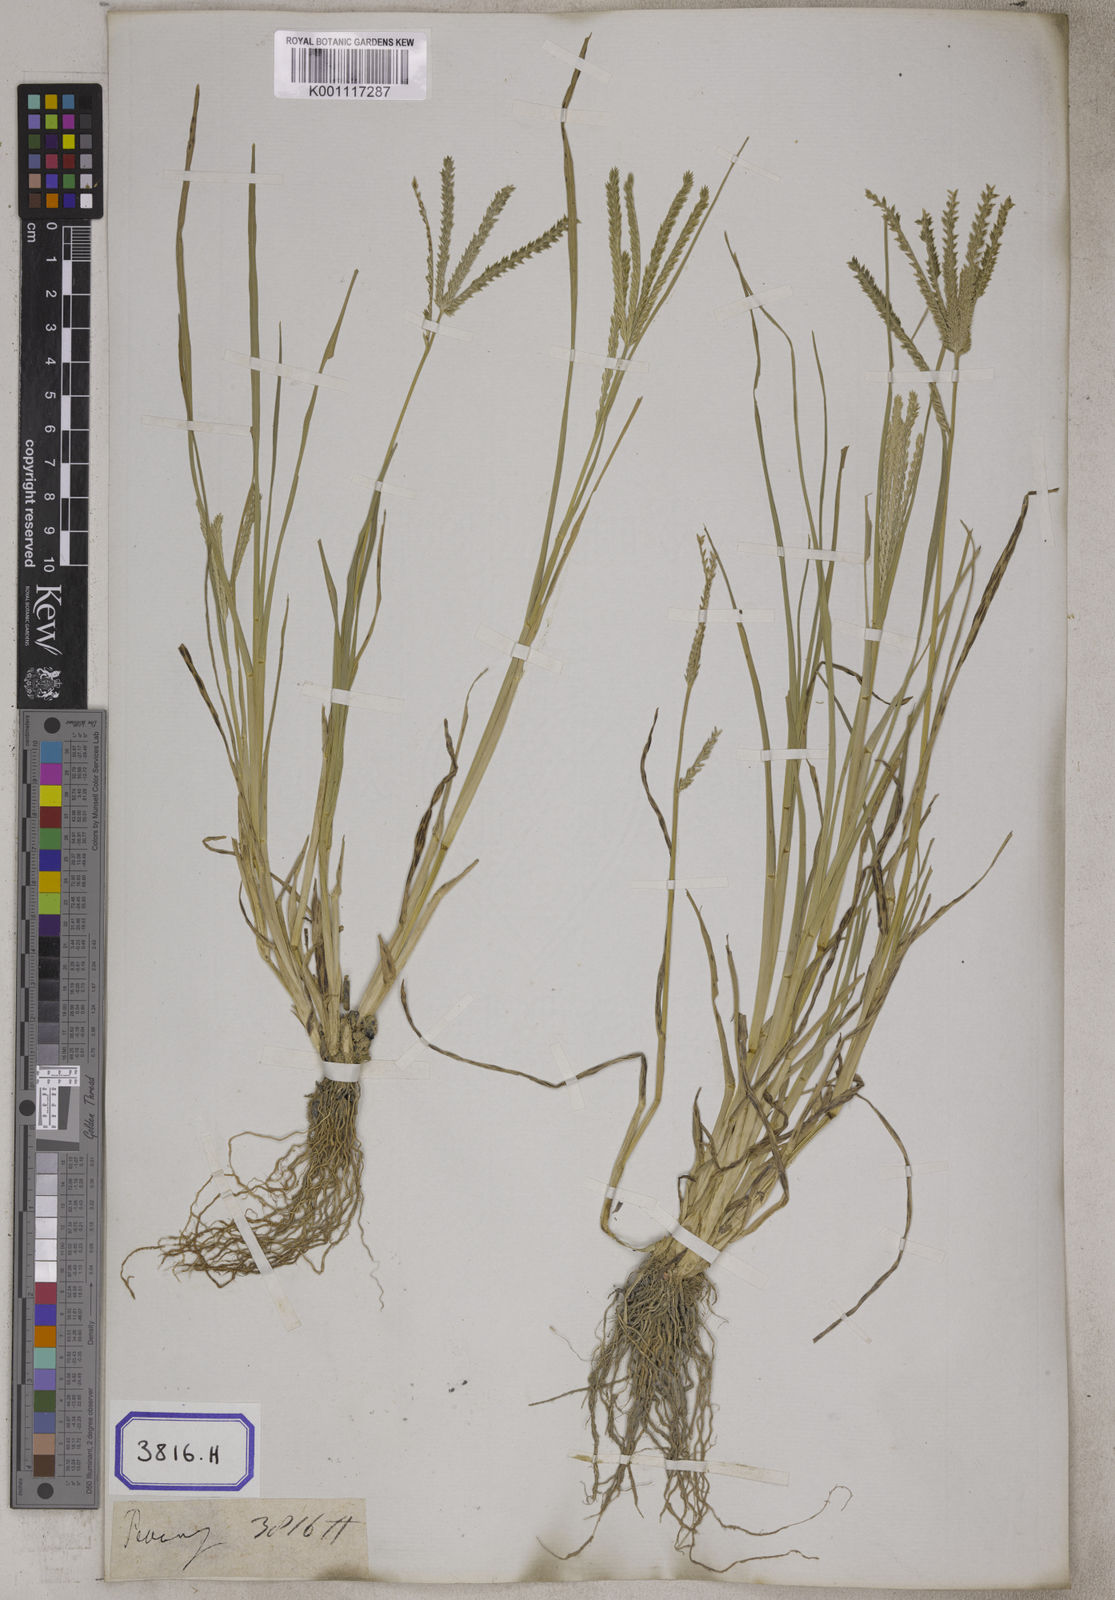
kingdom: Plantae
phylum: Tracheophyta
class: Liliopsida
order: Poales
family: Poaceae
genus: Eleusine
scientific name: Eleusine
